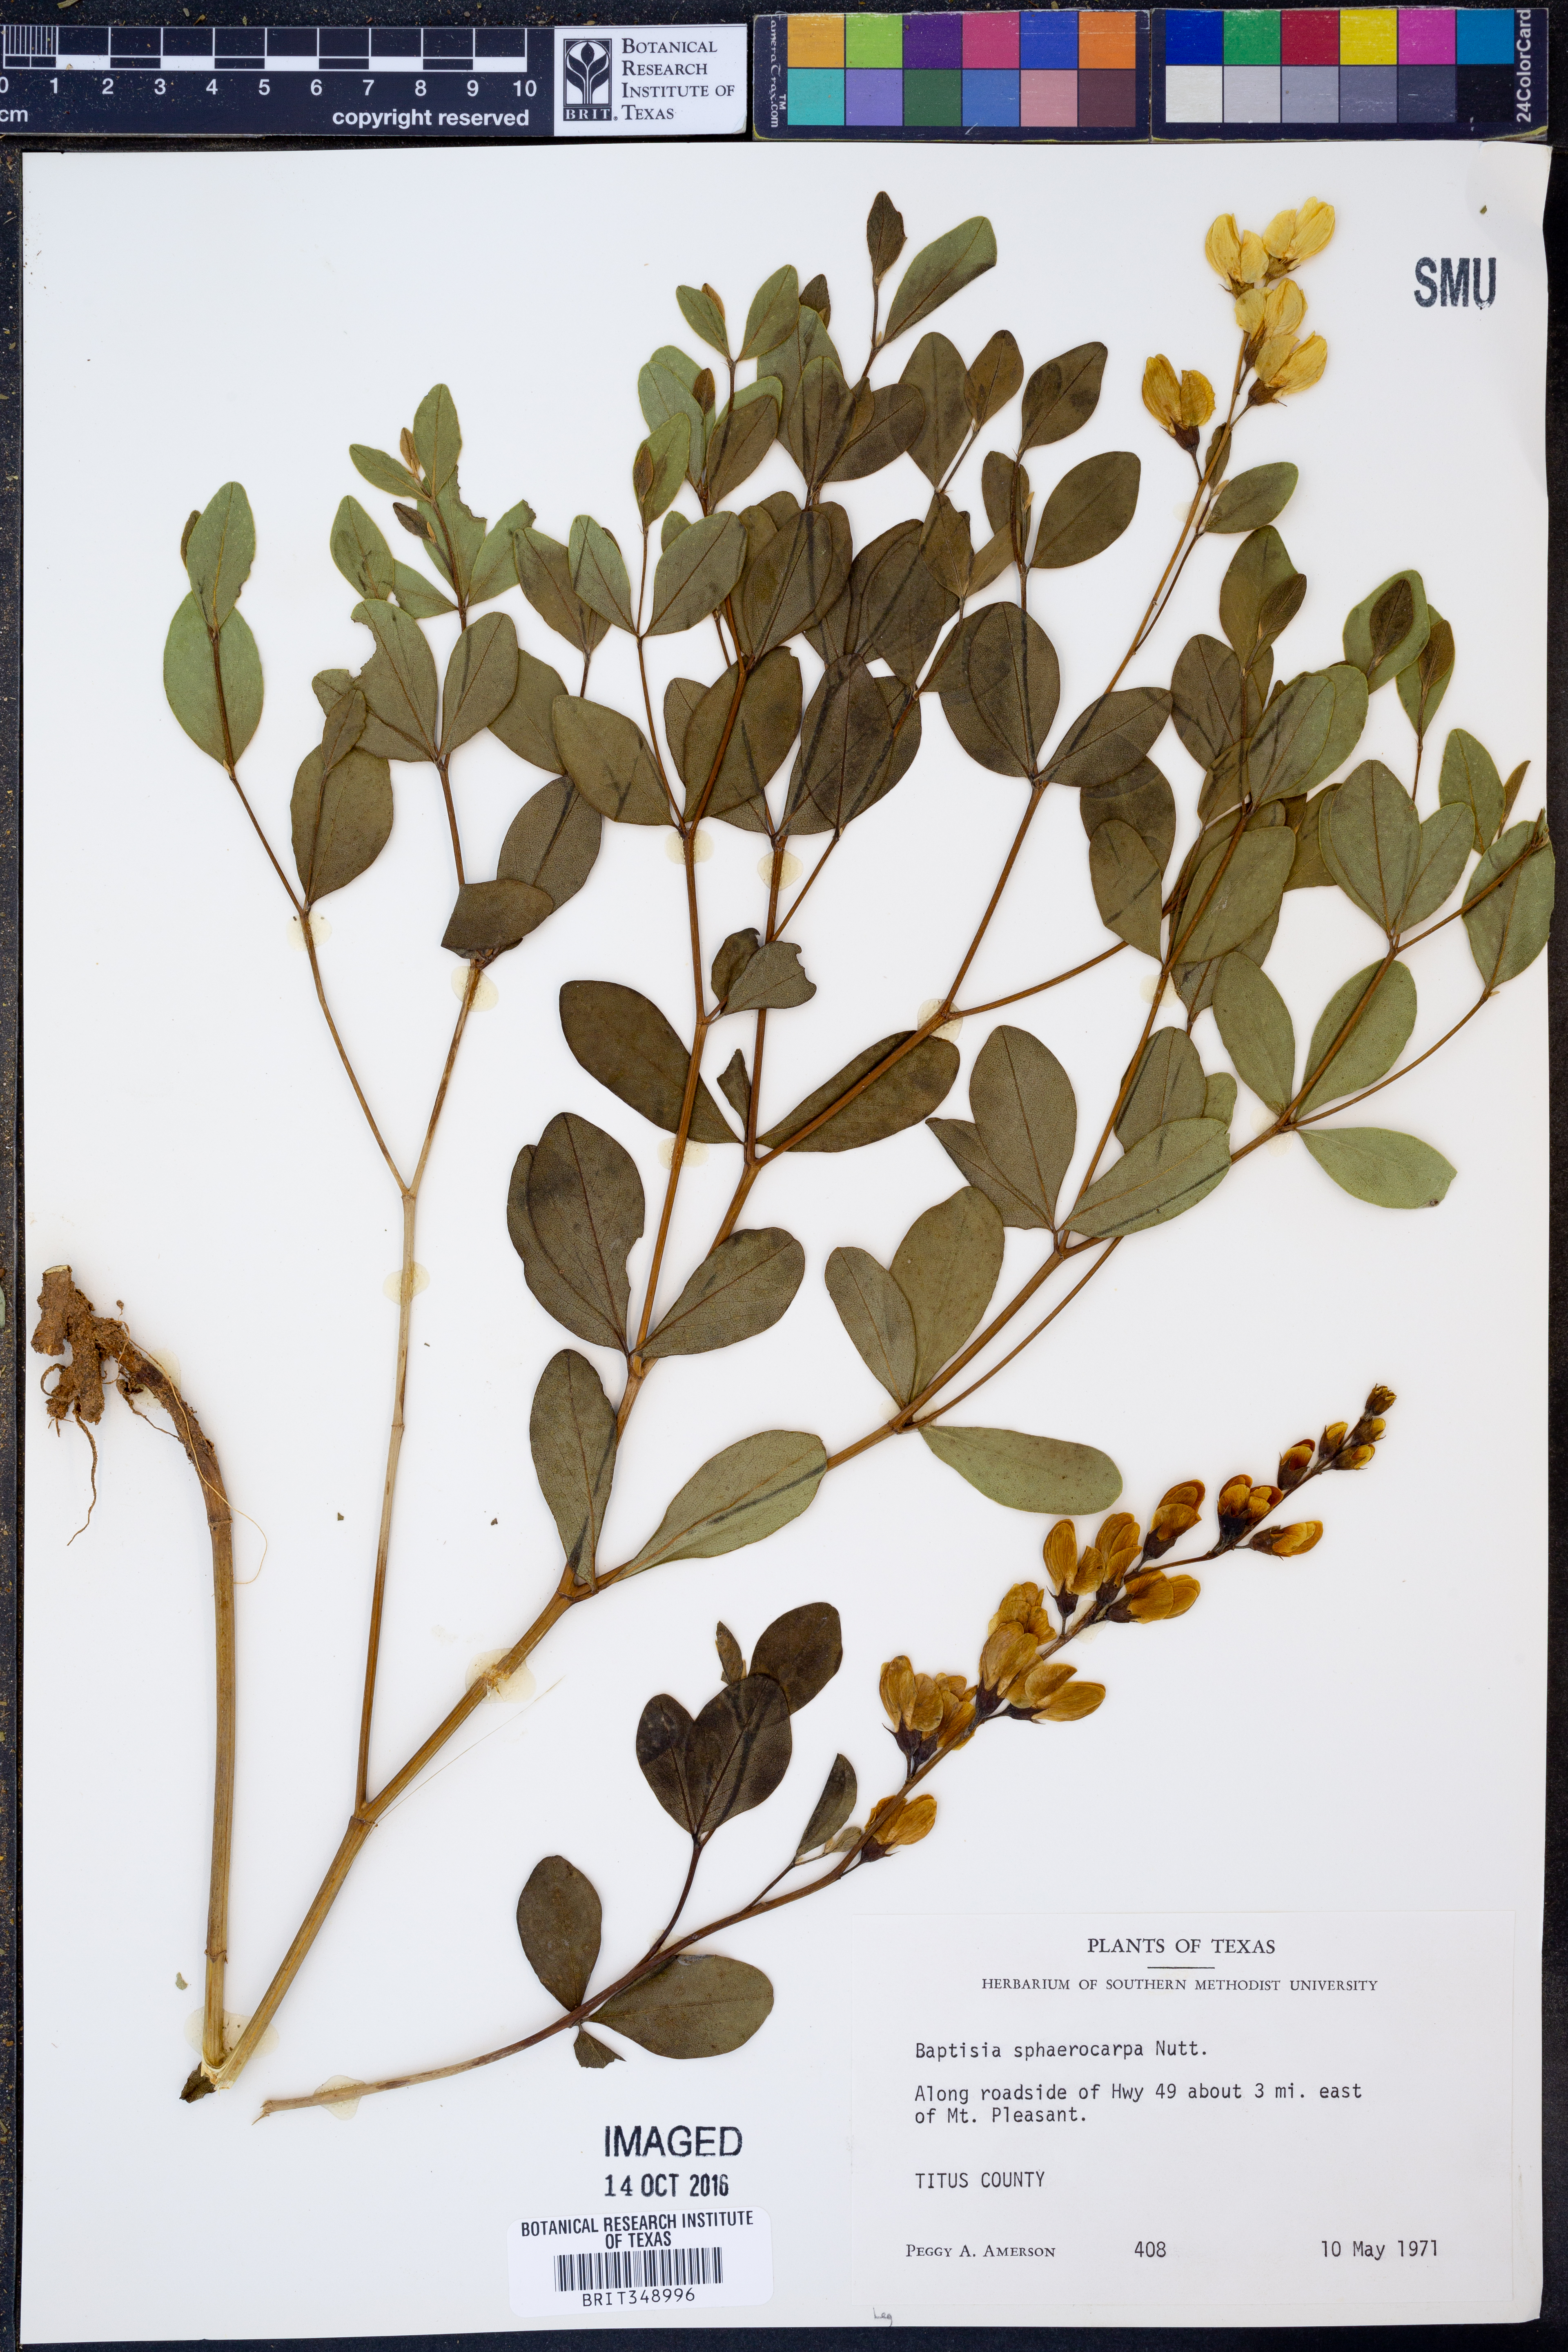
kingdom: Plantae
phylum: Tracheophyta
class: Magnoliopsida
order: Fabales
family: Fabaceae
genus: Baptisia
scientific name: Baptisia sphaerocarpa
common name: Round wild indigo
